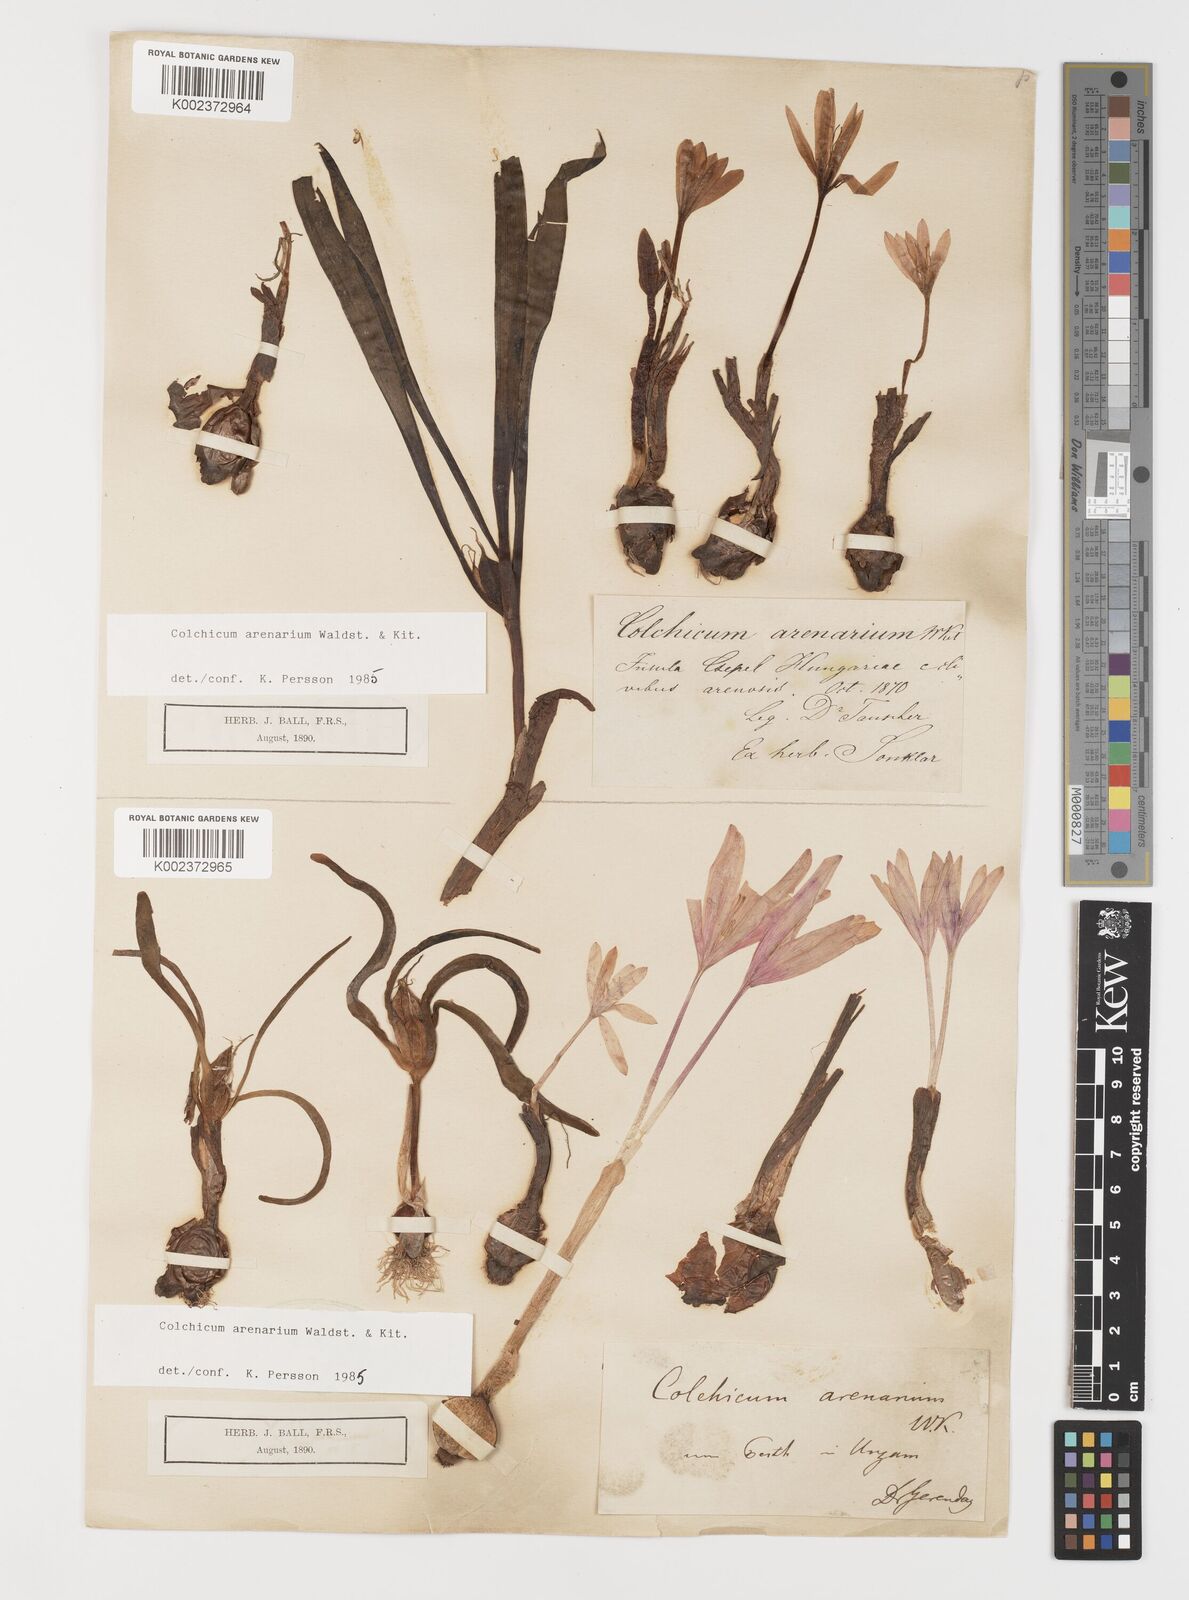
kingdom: Plantae
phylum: Tracheophyta
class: Liliopsida
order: Liliales
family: Colchicaceae
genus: Colchicum
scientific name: Colchicum arenarium
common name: Sand saffron
